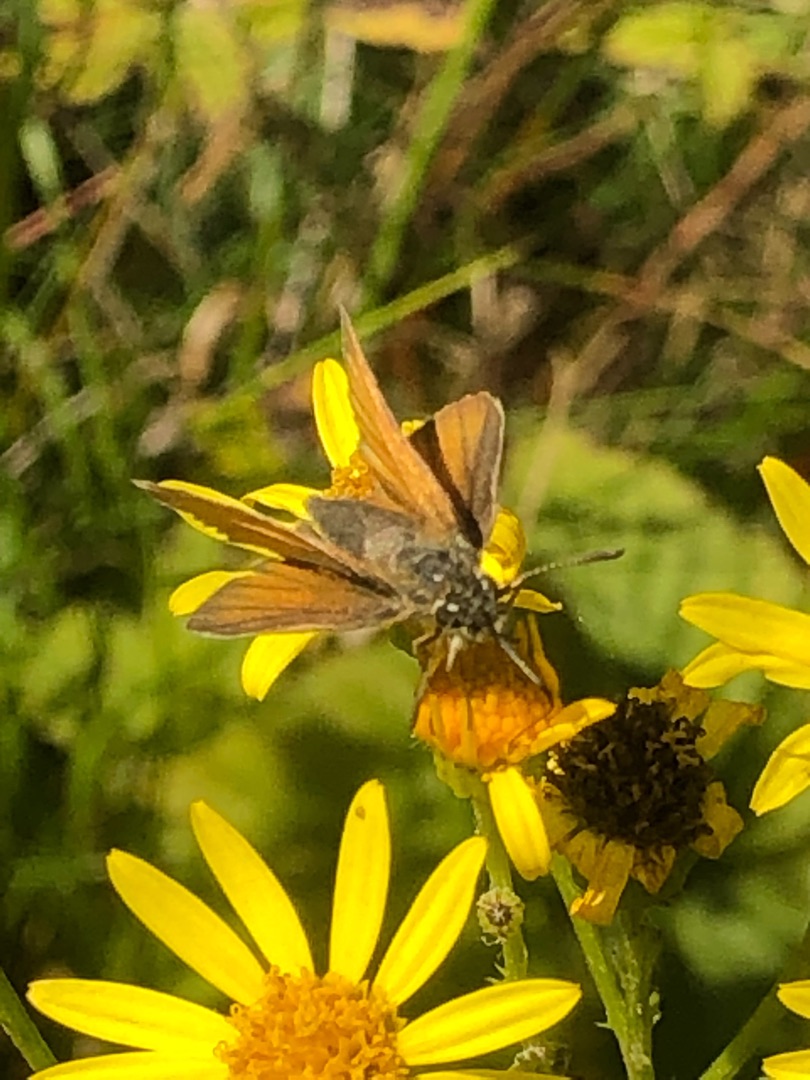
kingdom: Animalia
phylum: Arthropoda
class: Insecta
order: Lepidoptera
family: Hesperiidae
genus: Thymelicus
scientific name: Thymelicus lineola
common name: Stregbredpande
